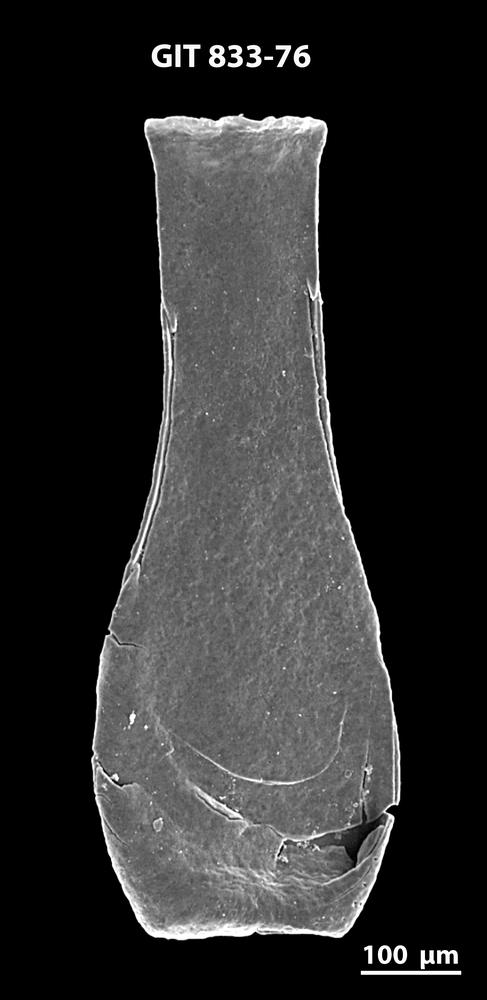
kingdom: Animalia
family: Lagenochitinidae
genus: Lagenochitina
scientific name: Lagenochitina megaesthonica
